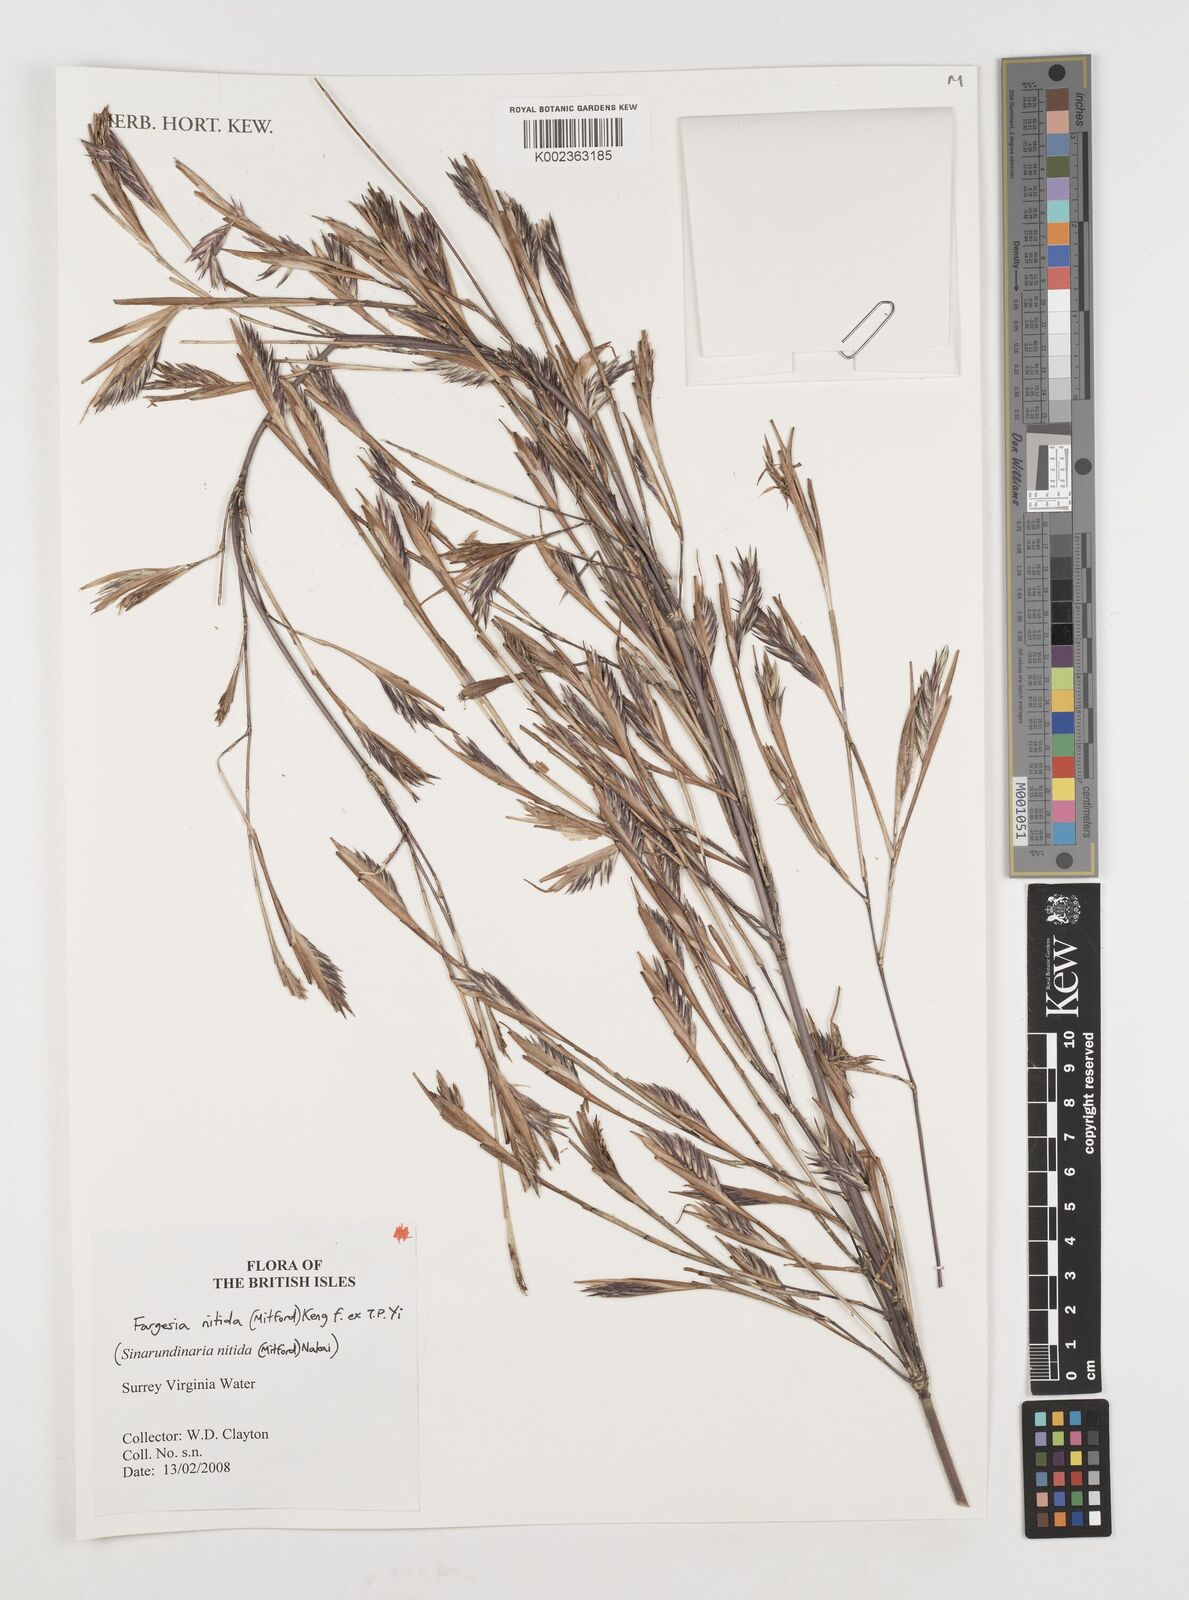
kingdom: Plantae
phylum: Tracheophyta
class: Liliopsida
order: Poales
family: Poaceae
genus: Fargesia
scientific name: Fargesia nitida ex
